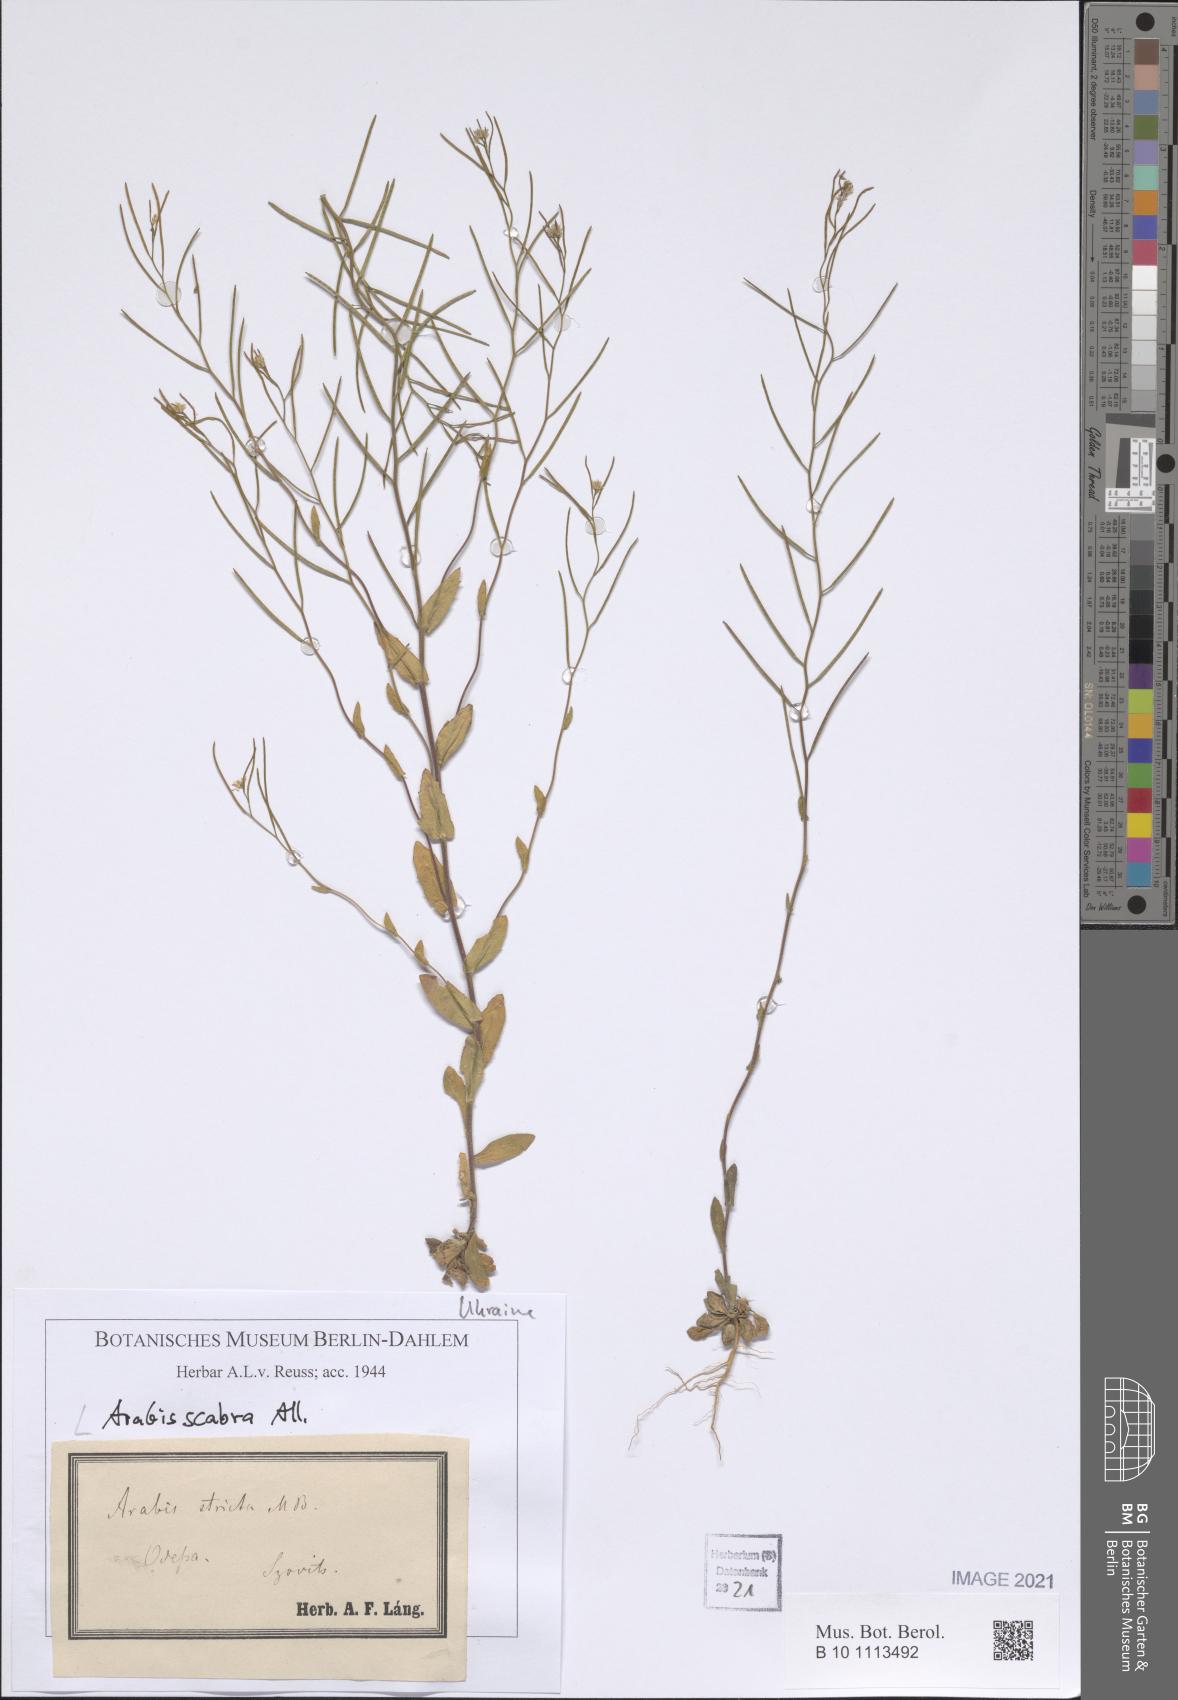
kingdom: Plantae
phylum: Tracheophyta
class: Magnoliopsida
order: Brassicales
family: Brassicaceae
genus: Arabis
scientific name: Arabis scabra
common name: Bristol rock-cress
